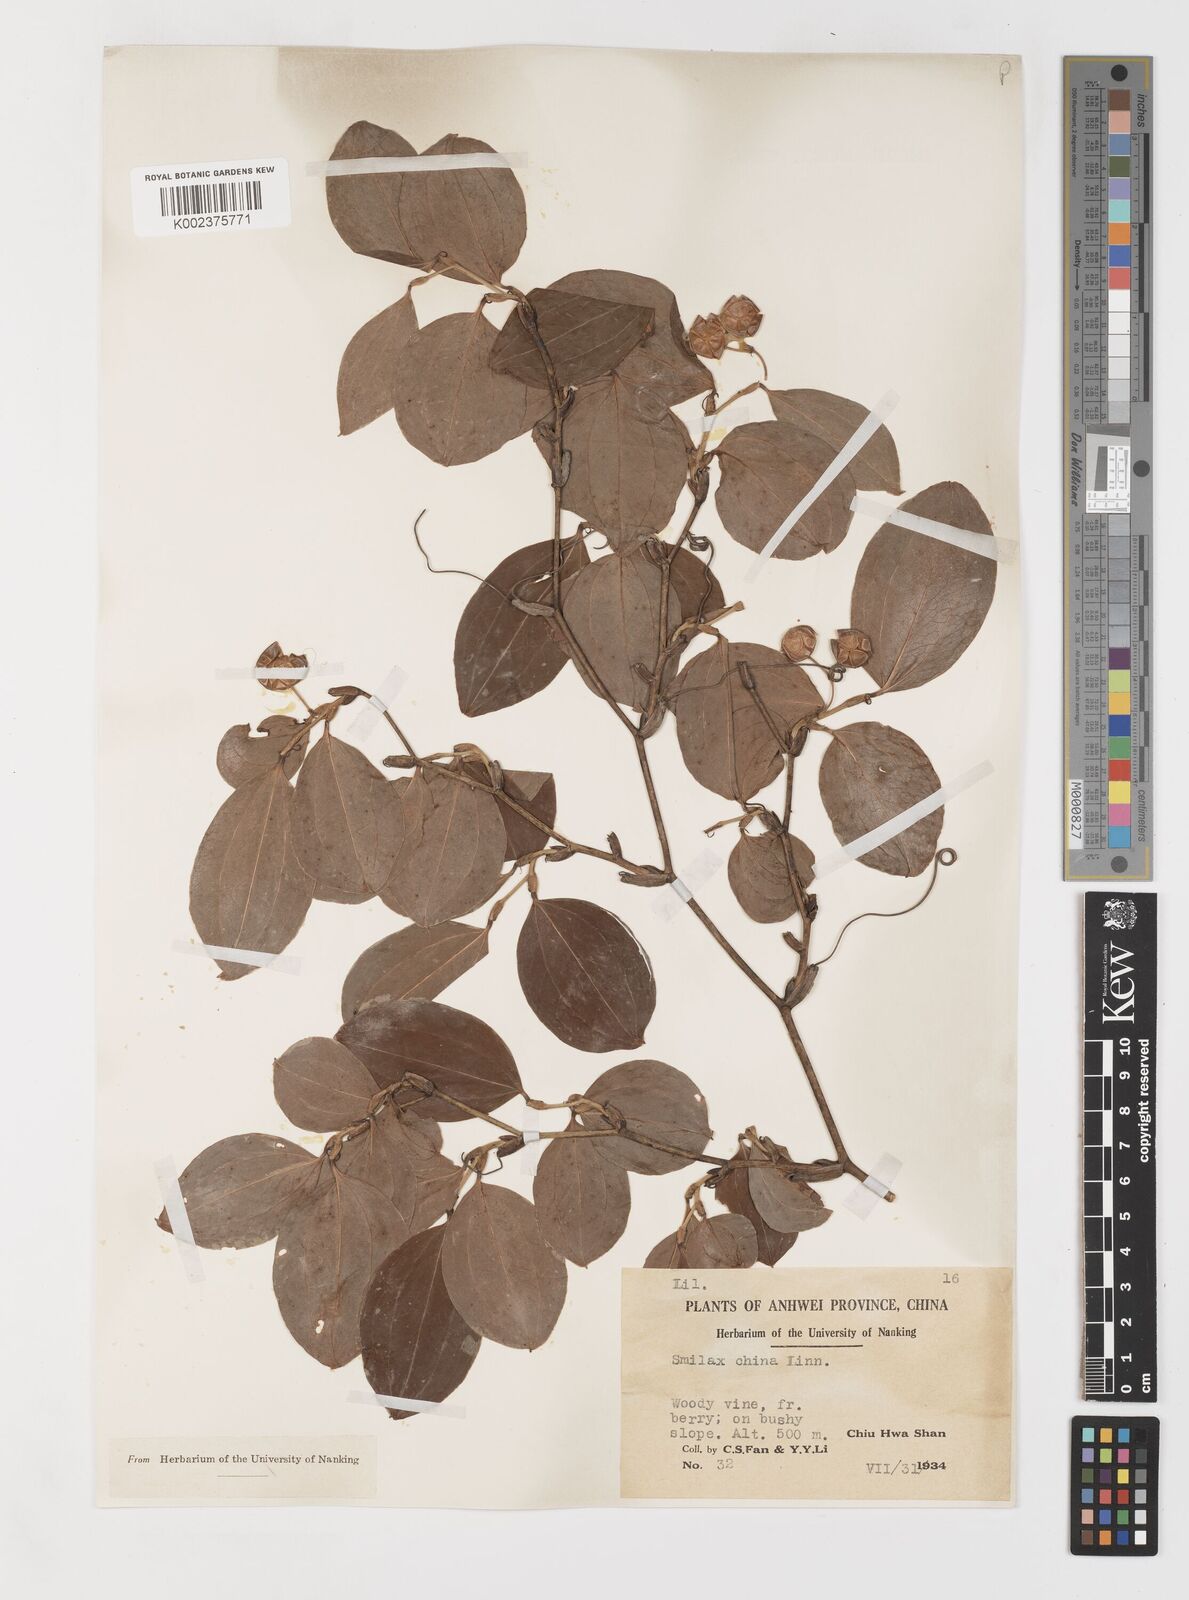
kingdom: Plantae
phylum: Tracheophyta
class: Liliopsida
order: Liliales
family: Smilacaceae
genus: Smilax
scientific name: Smilax china
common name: Chinaroot
